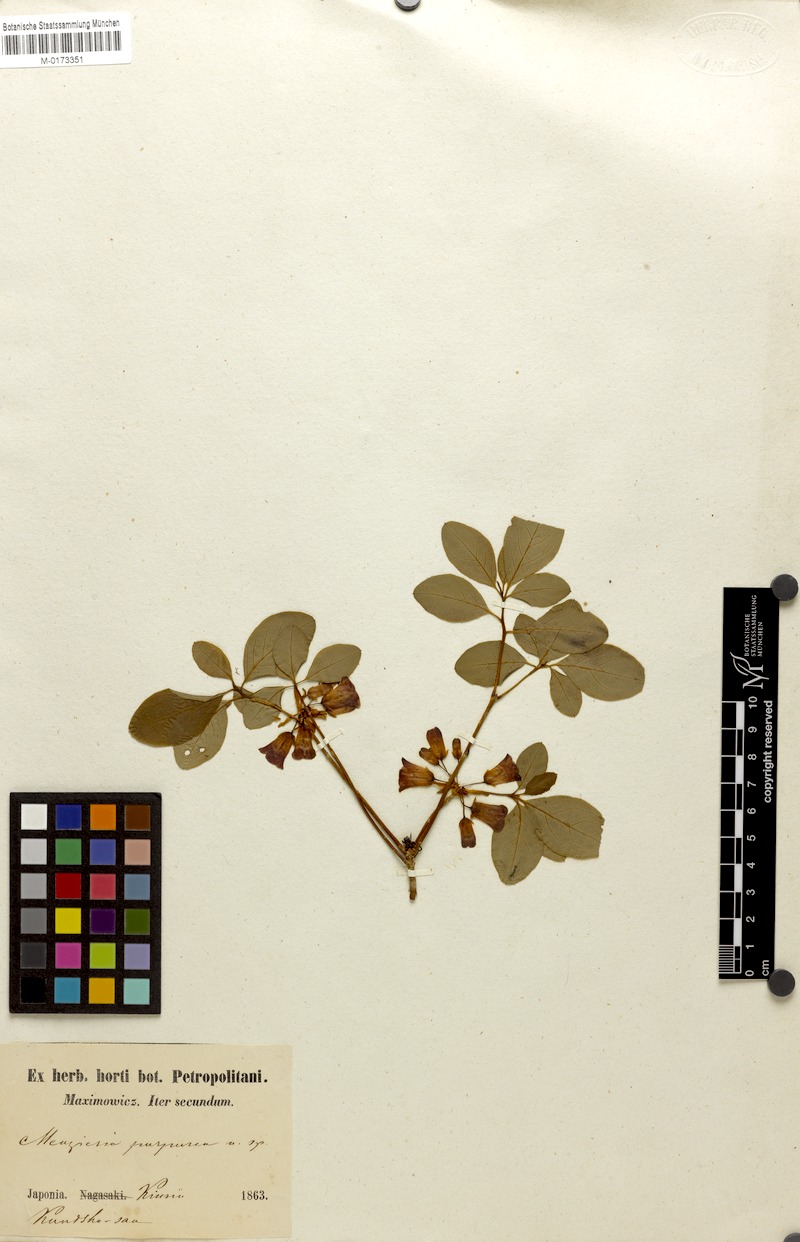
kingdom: Plantae
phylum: Tracheophyta
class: Magnoliopsida
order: Ericales
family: Ericaceae
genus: Rhododendron
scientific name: Rhododendron kroniae
